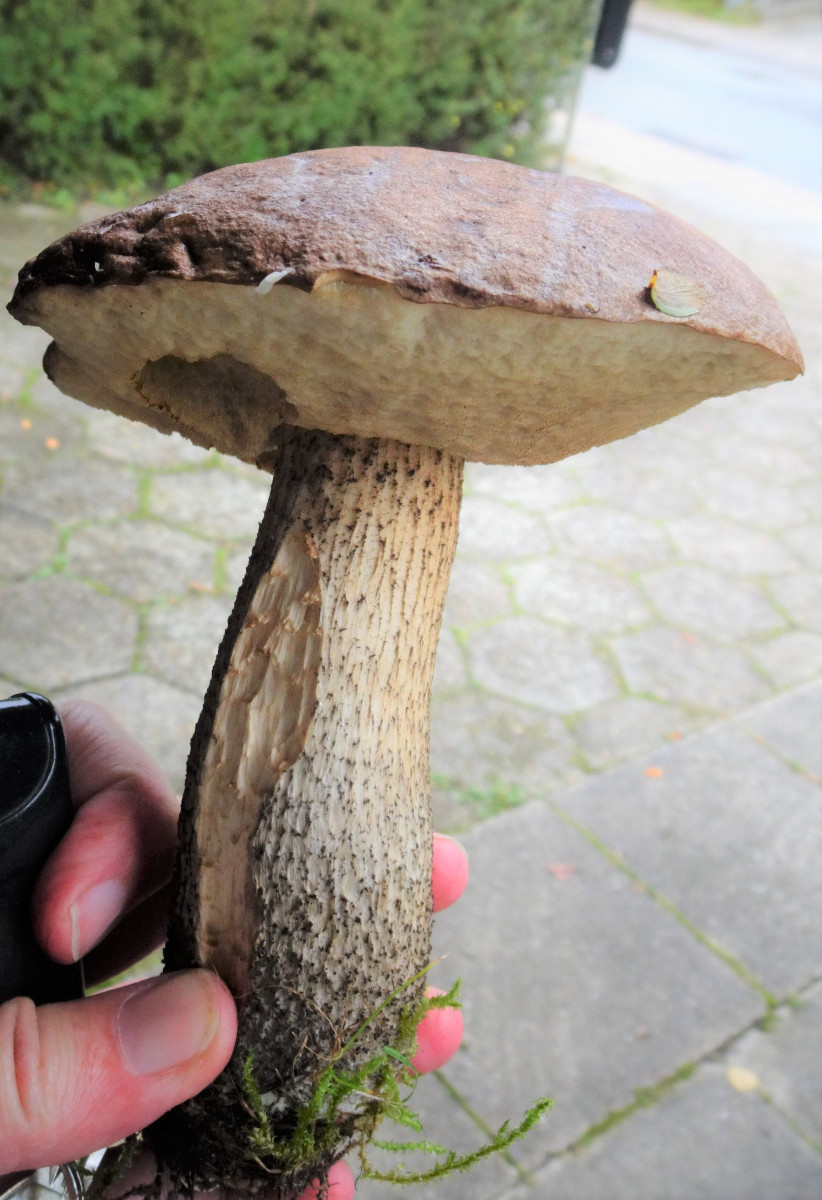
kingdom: Fungi
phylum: Basidiomycota
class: Agaricomycetes
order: Boletales
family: Boletaceae
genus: Leccinum
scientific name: Leccinum scabrum
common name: brun skælrørhat
